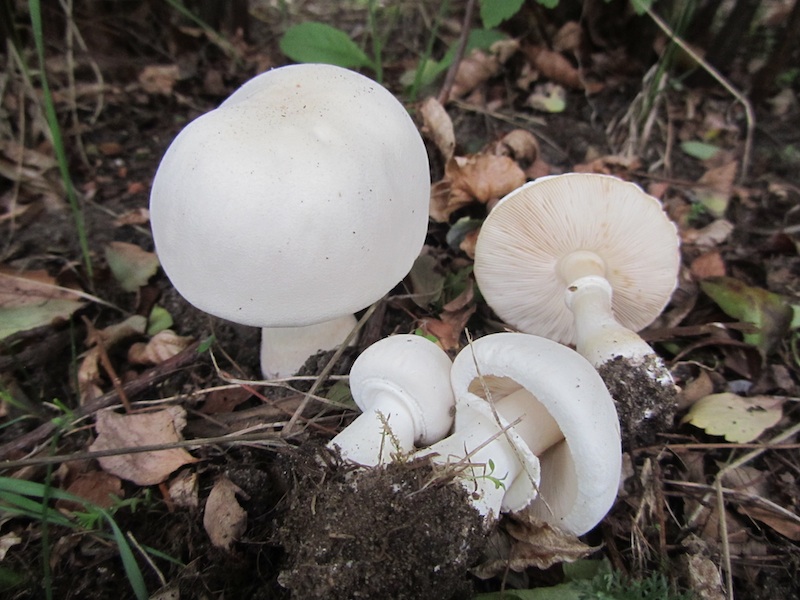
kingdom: Fungi
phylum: Basidiomycota
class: Agaricomycetes
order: Agaricales
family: Agaricaceae
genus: Leucoagaricus
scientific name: Leucoagaricus leucothites
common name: rosabladet silkehat
